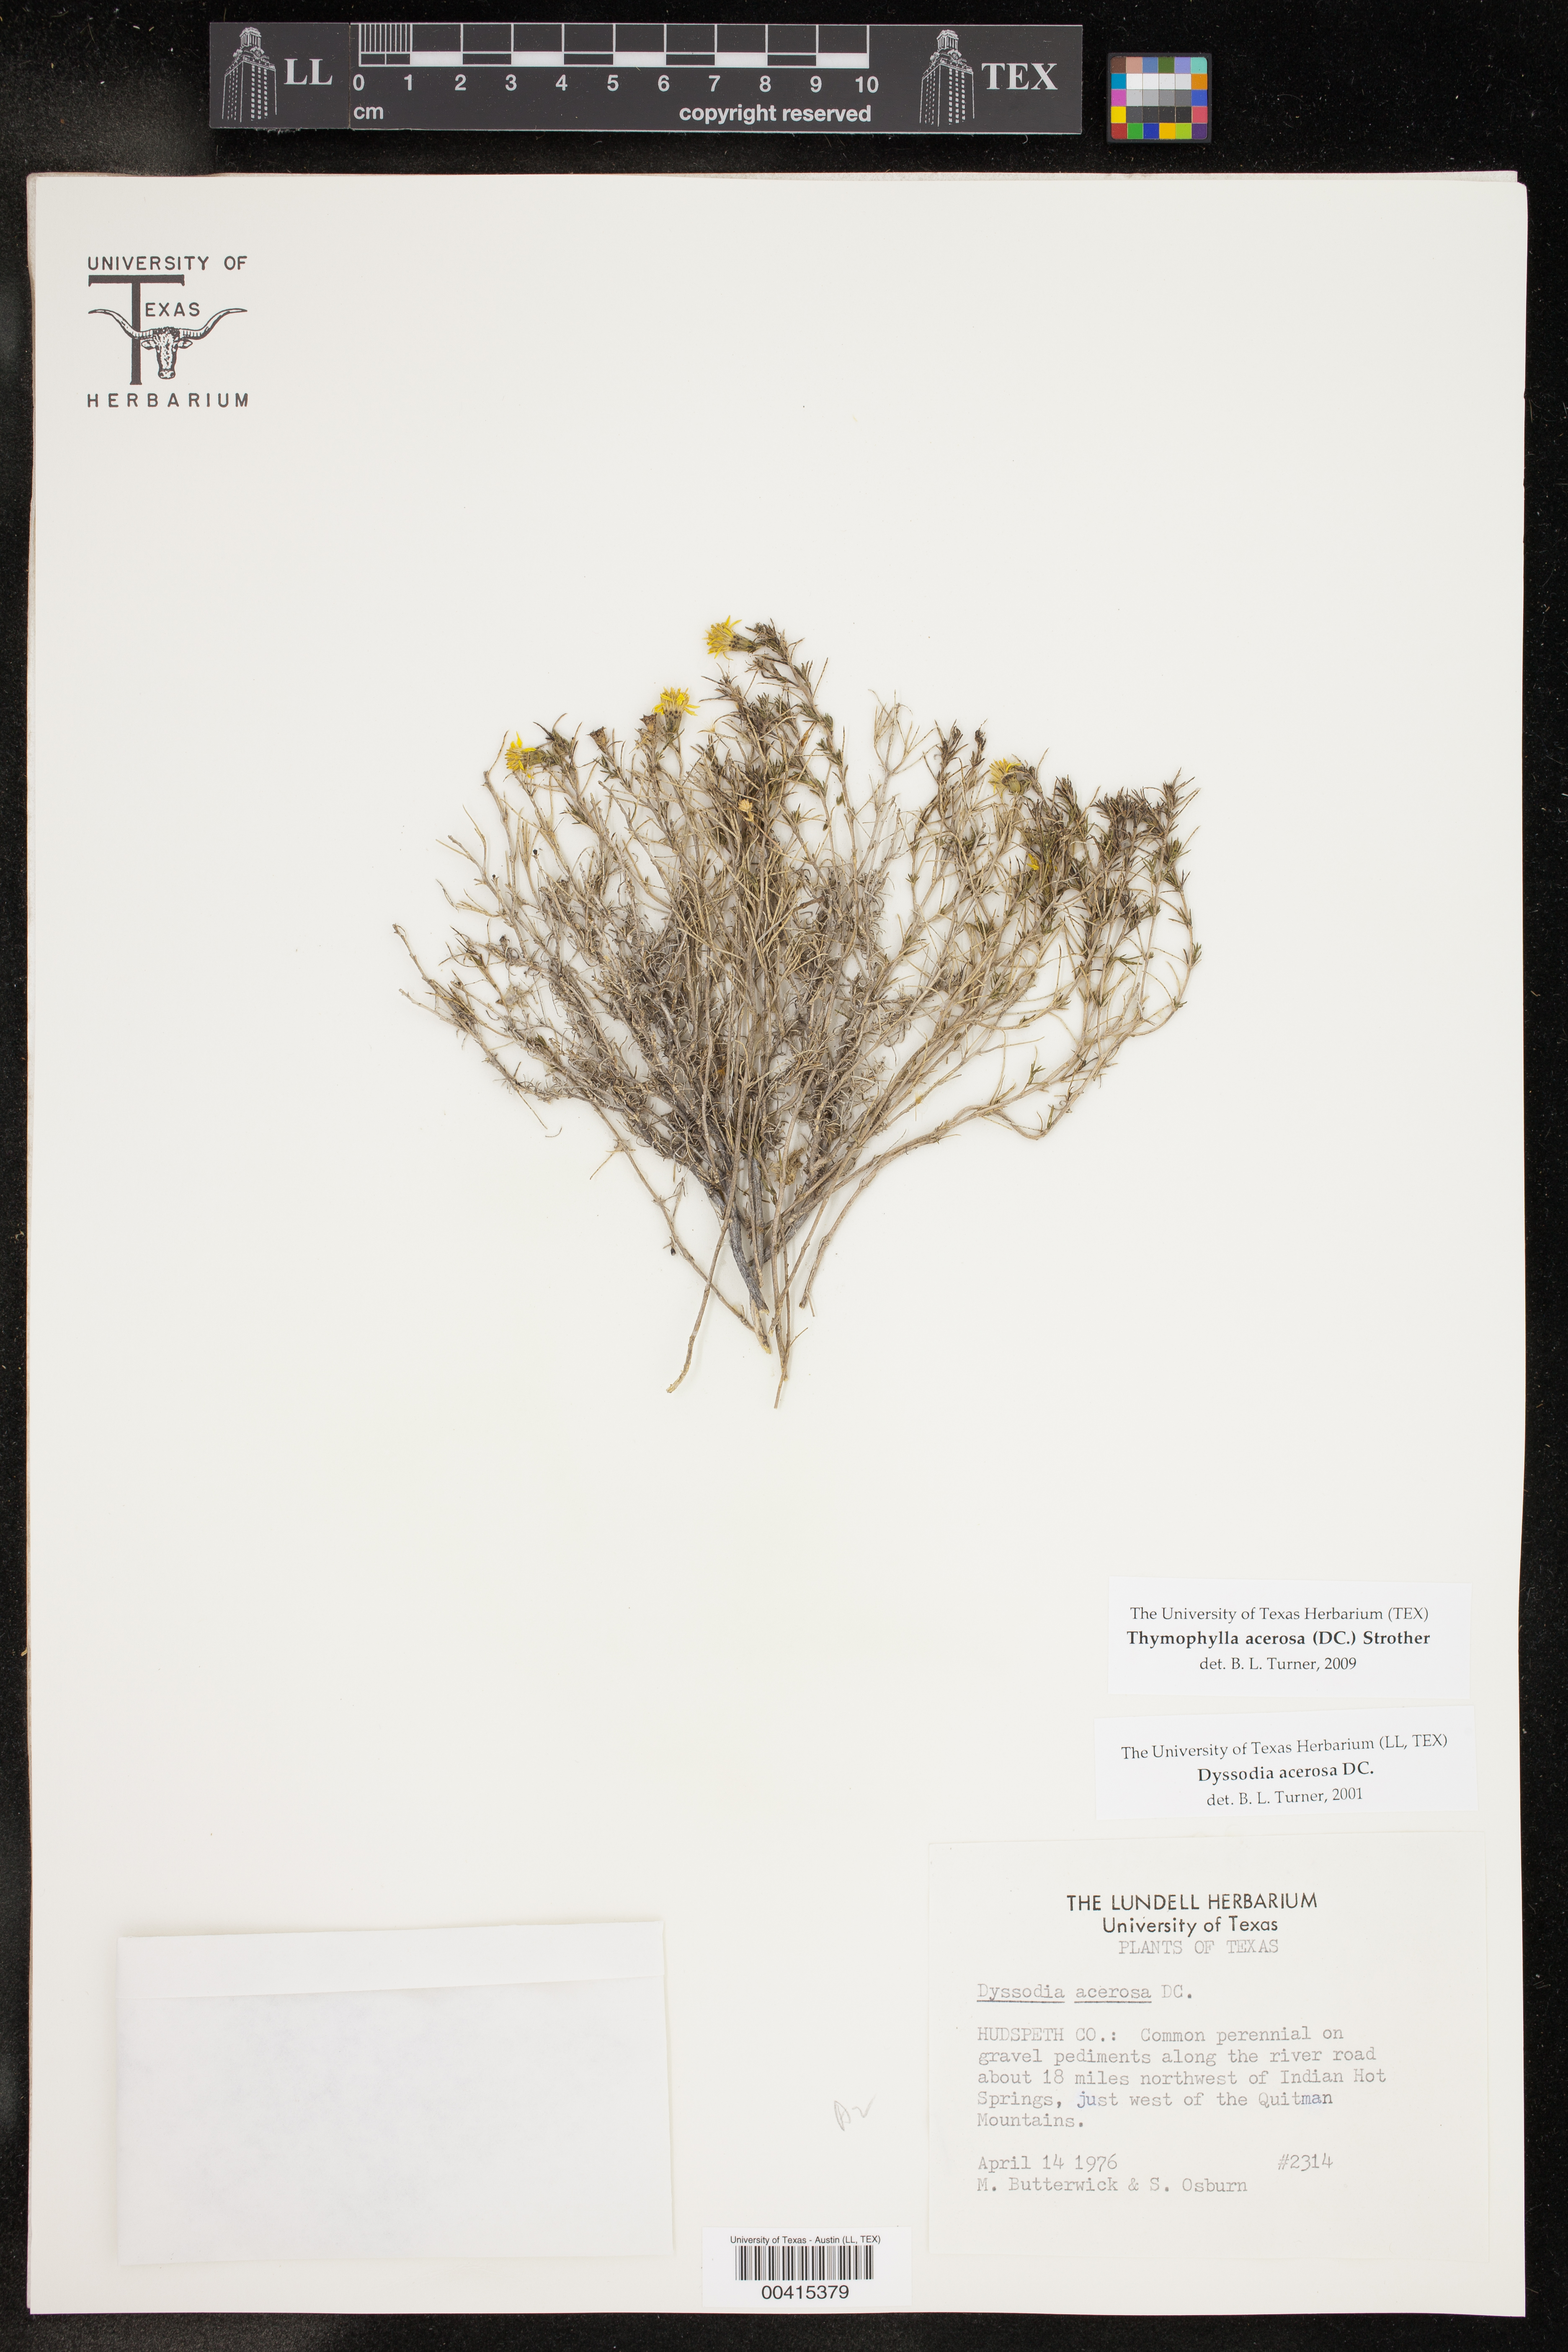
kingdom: Plantae
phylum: Tracheophyta
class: Magnoliopsida
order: Asterales
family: Asteraceae
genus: Thymophylla
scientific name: Thymophylla acerosa
